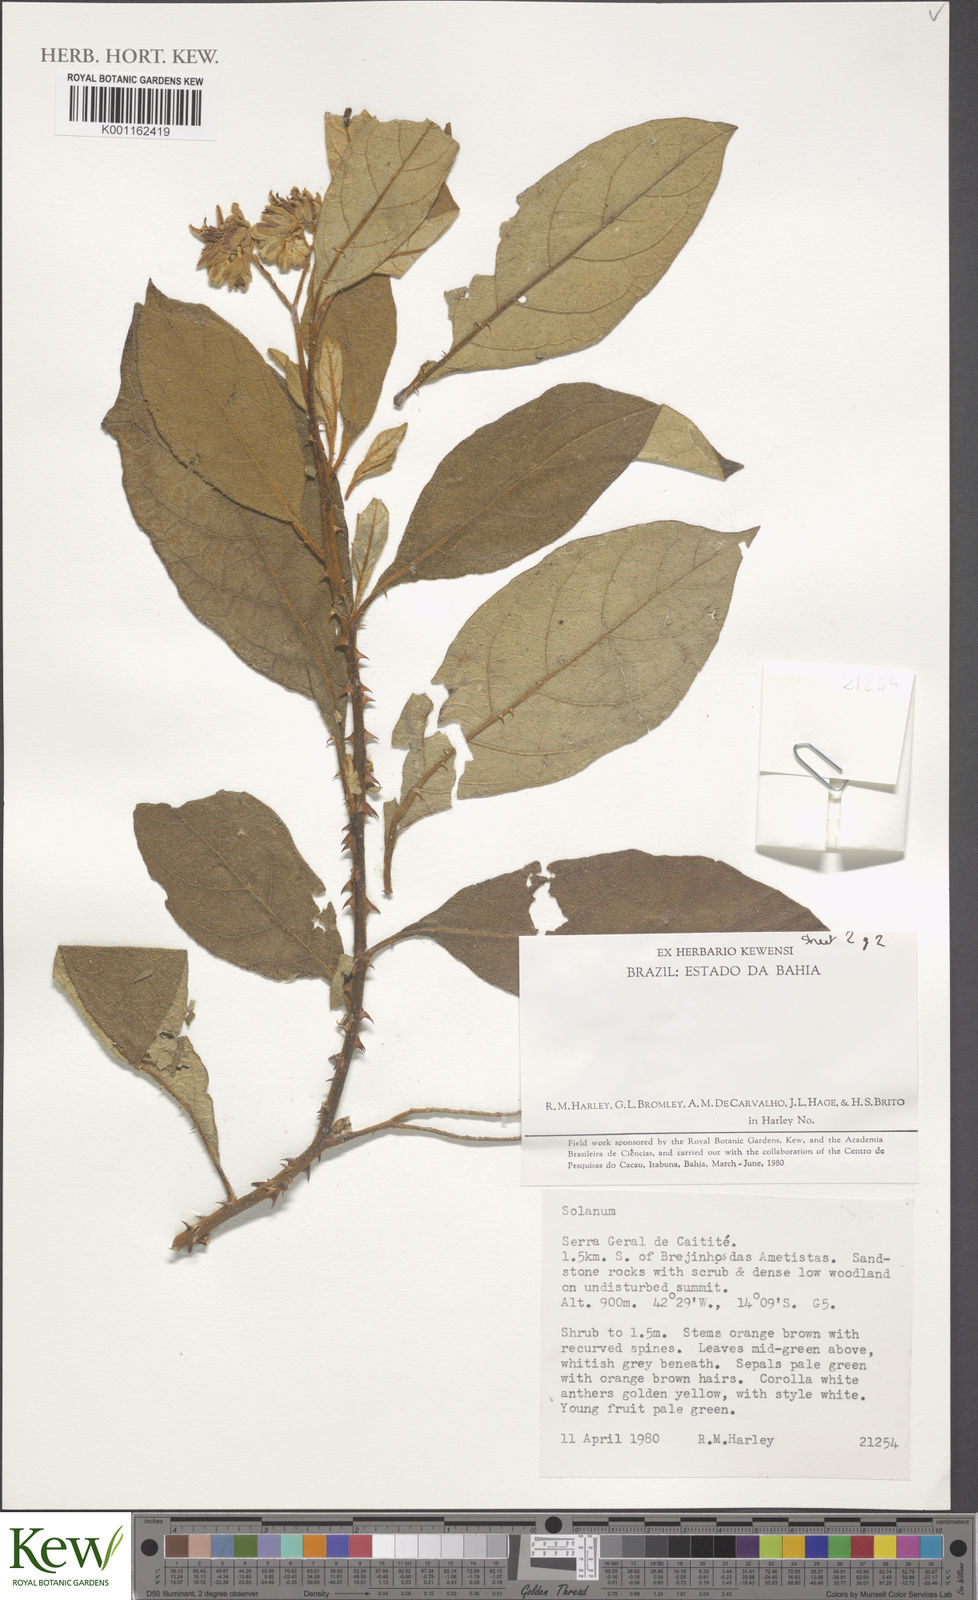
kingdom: Plantae
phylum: Tracheophyta
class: Magnoliopsida
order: Solanales
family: Solanaceae
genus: Solanum
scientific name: Solanum diamantinense
